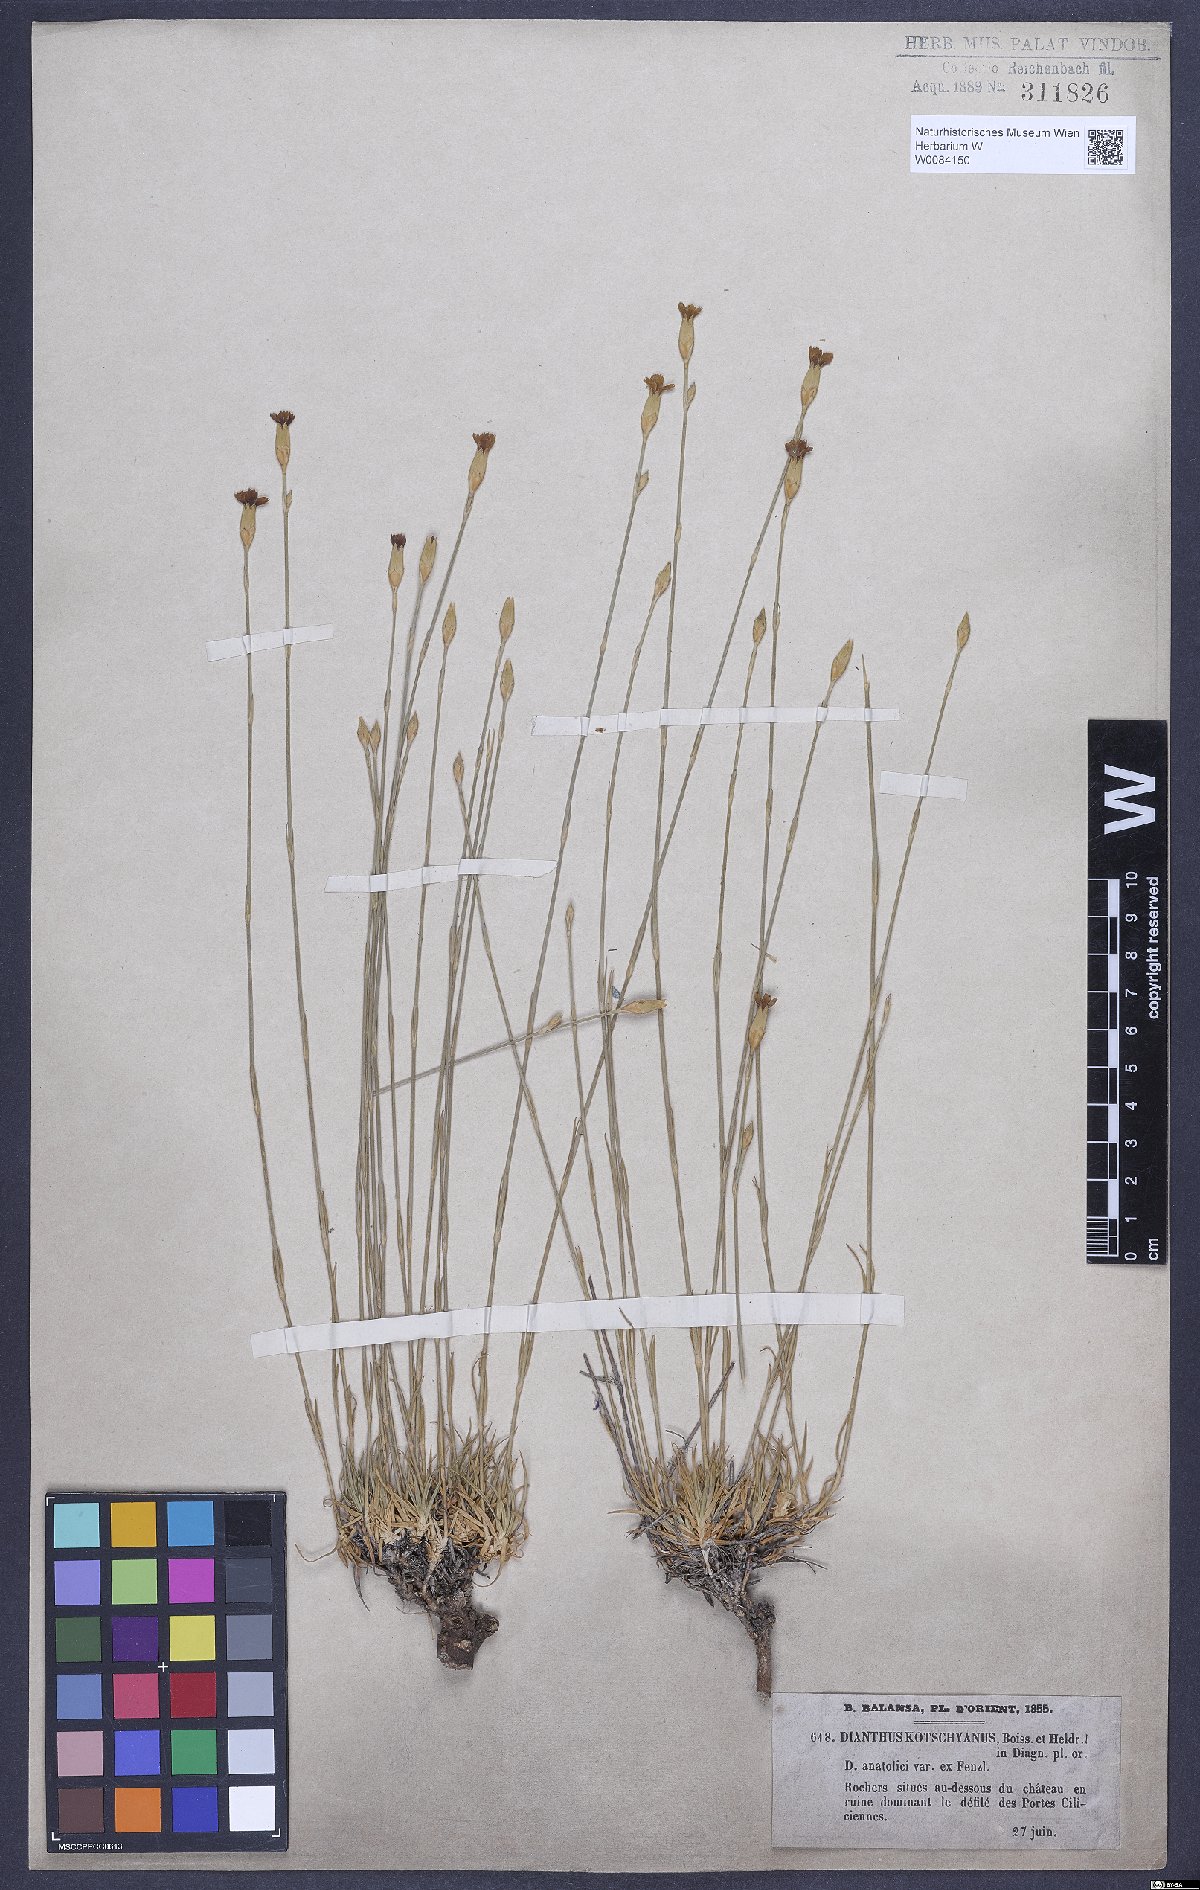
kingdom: Plantae
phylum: Tracheophyta
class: Magnoliopsida
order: Caryophyllales
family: Caryophyllaceae
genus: Dianthus
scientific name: Dianthus anatolicus
